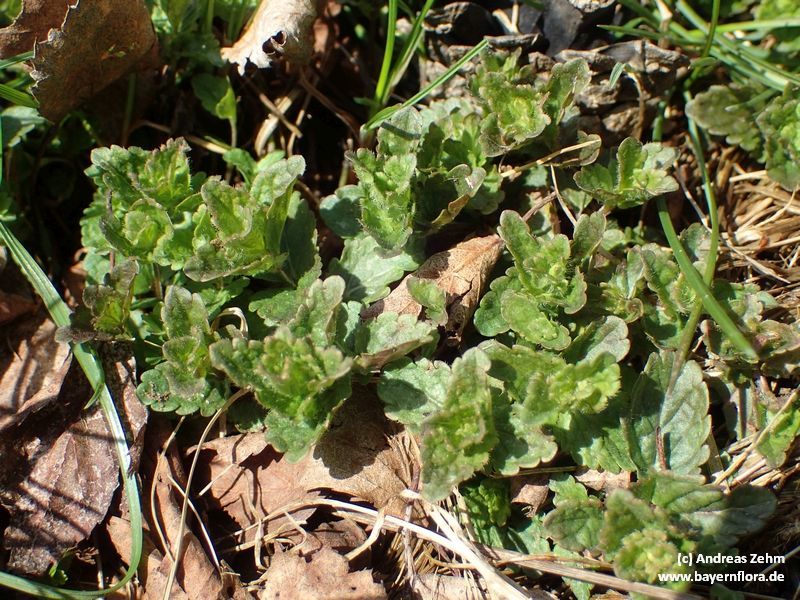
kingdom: Plantae
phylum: Tracheophyta
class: Magnoliopsida
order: Lamiales
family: Plantaginaceae
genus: Veronica
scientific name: Veronica chamaedrys
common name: Germander speedwell
